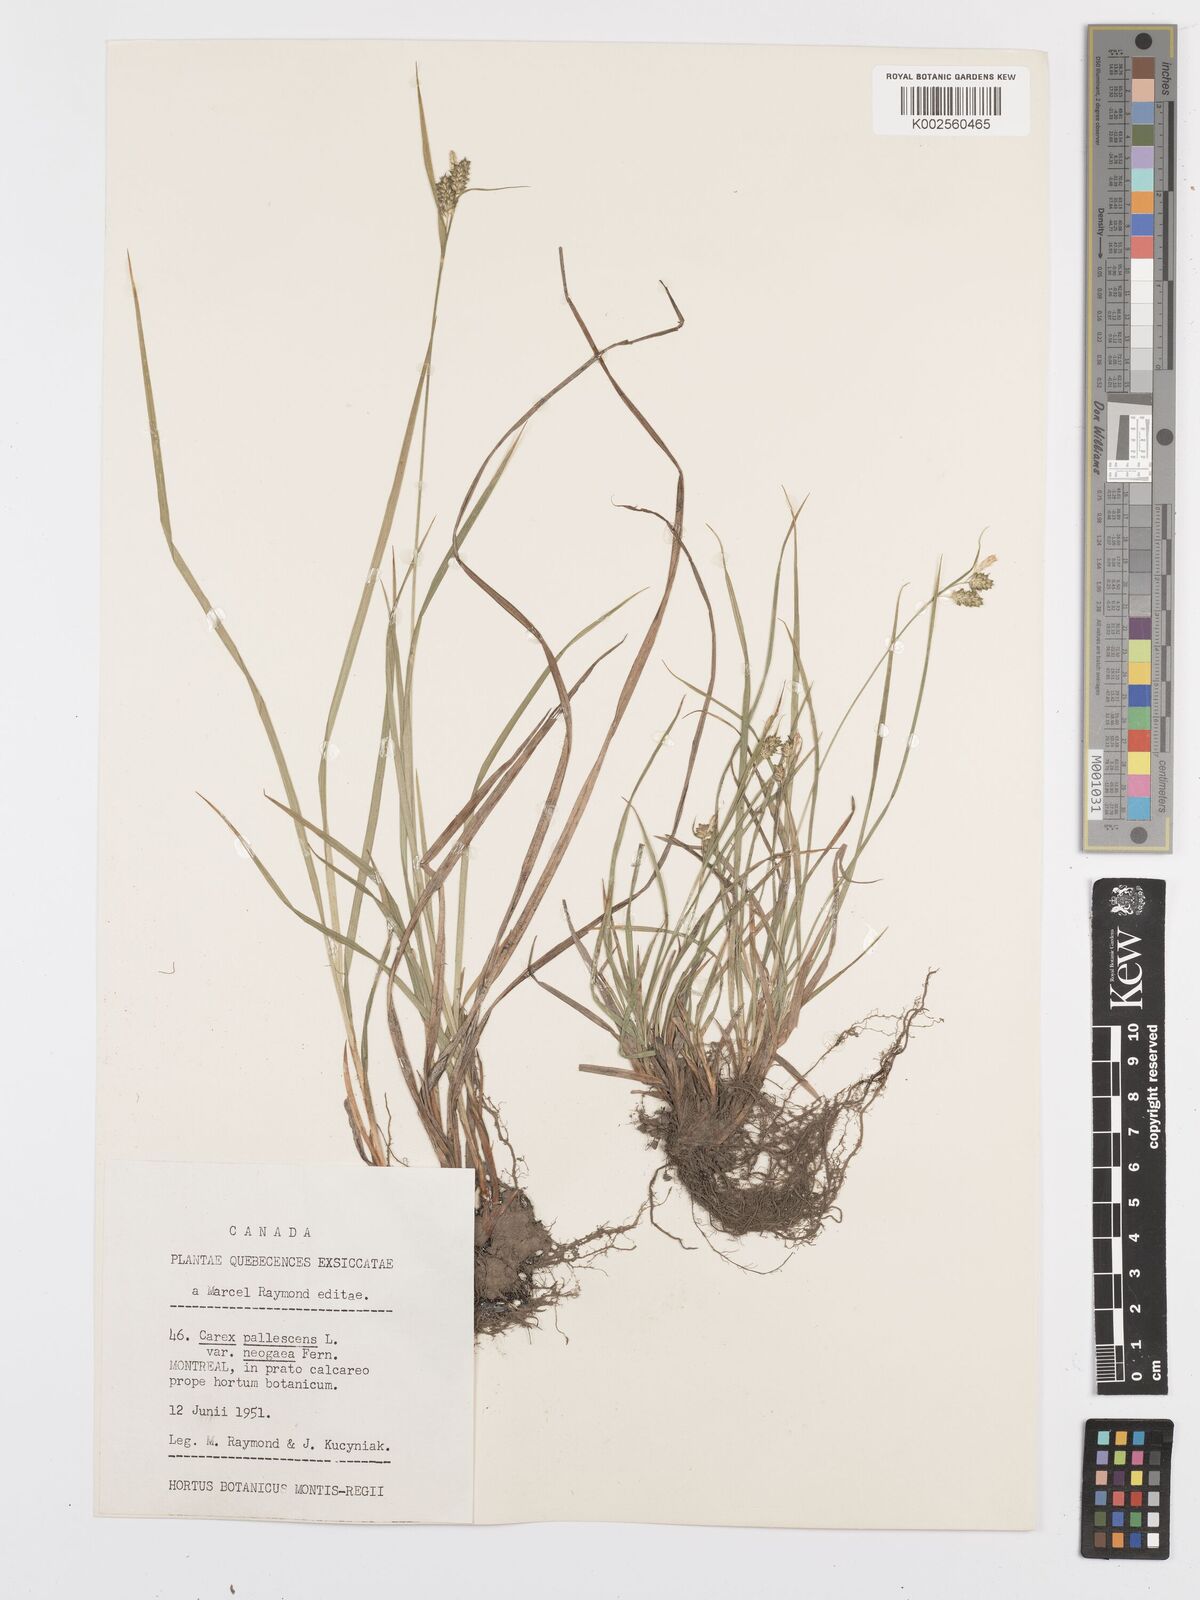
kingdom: Plantae
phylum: Tracheophyta
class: Liliopsida
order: Poales
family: Cyperaceae
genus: Carex
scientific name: Carex pallescens
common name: Pale sedge
